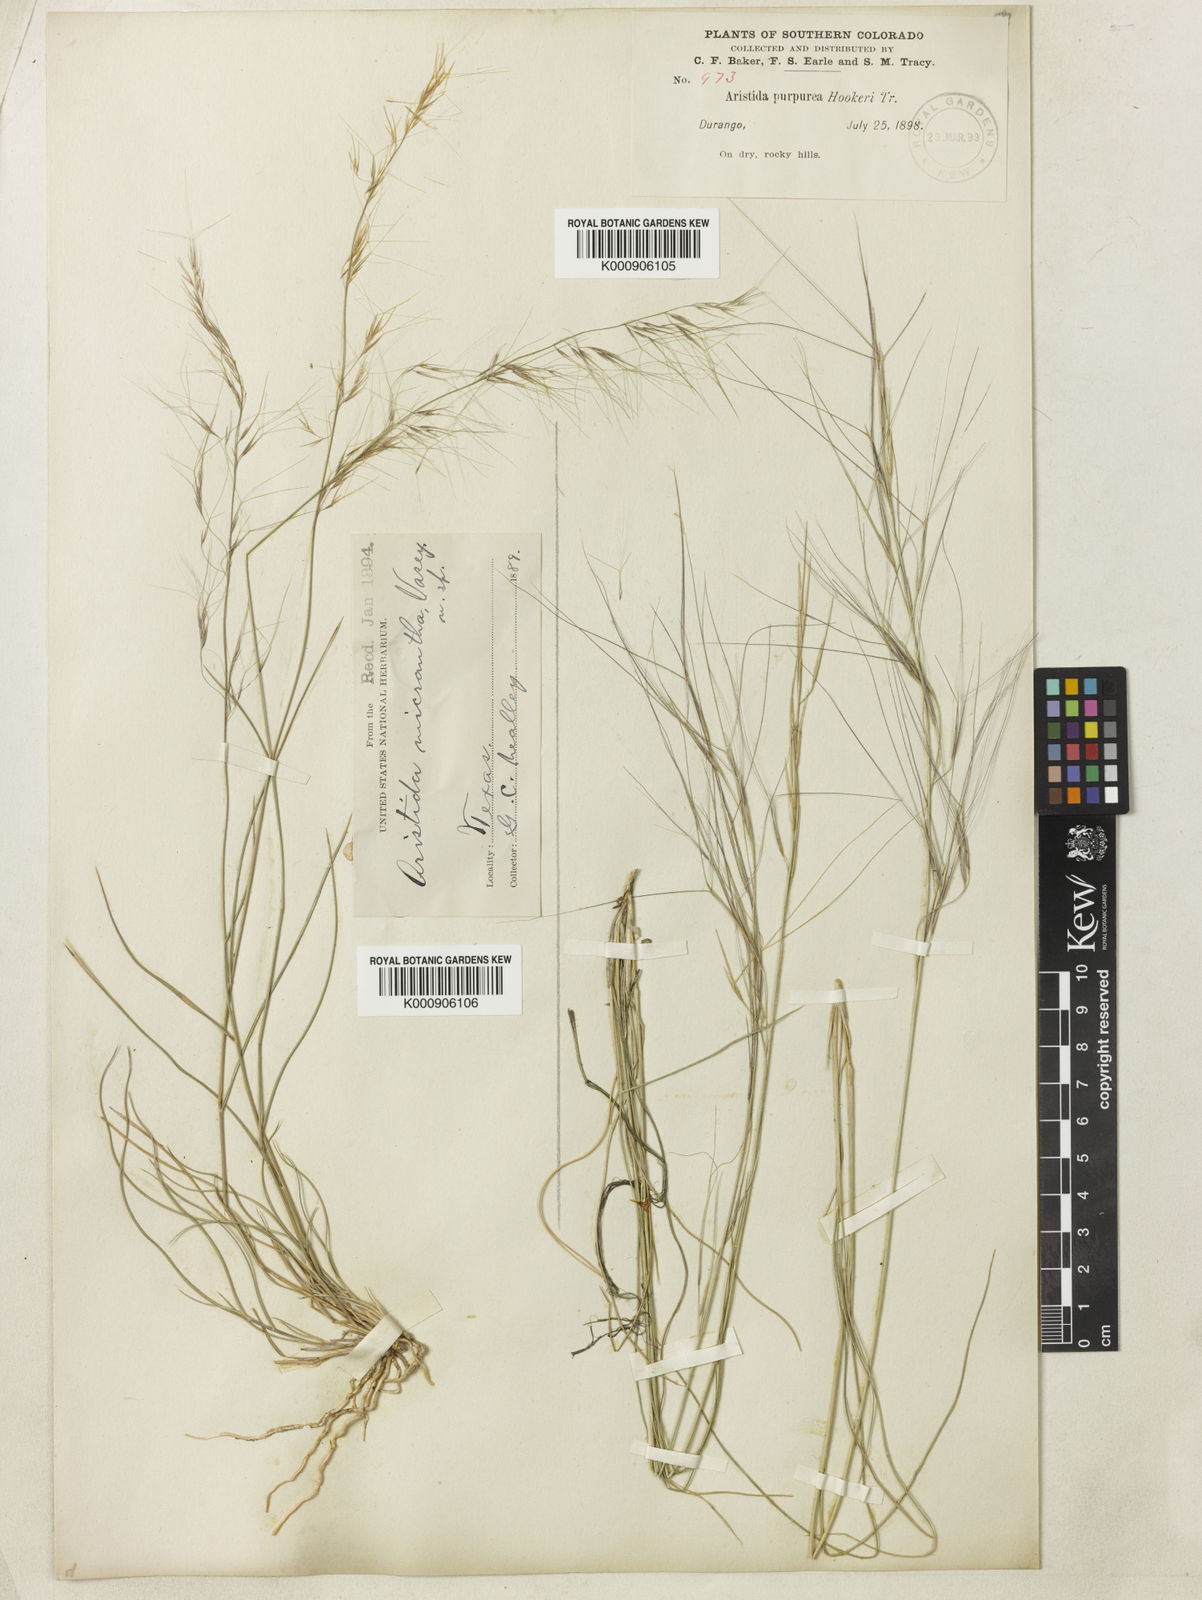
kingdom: Plantae
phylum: Tracheophyta
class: Liliopsida
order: Poales
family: Poaceae
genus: Aristida
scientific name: Aristida purpurea
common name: Purple threeawn
